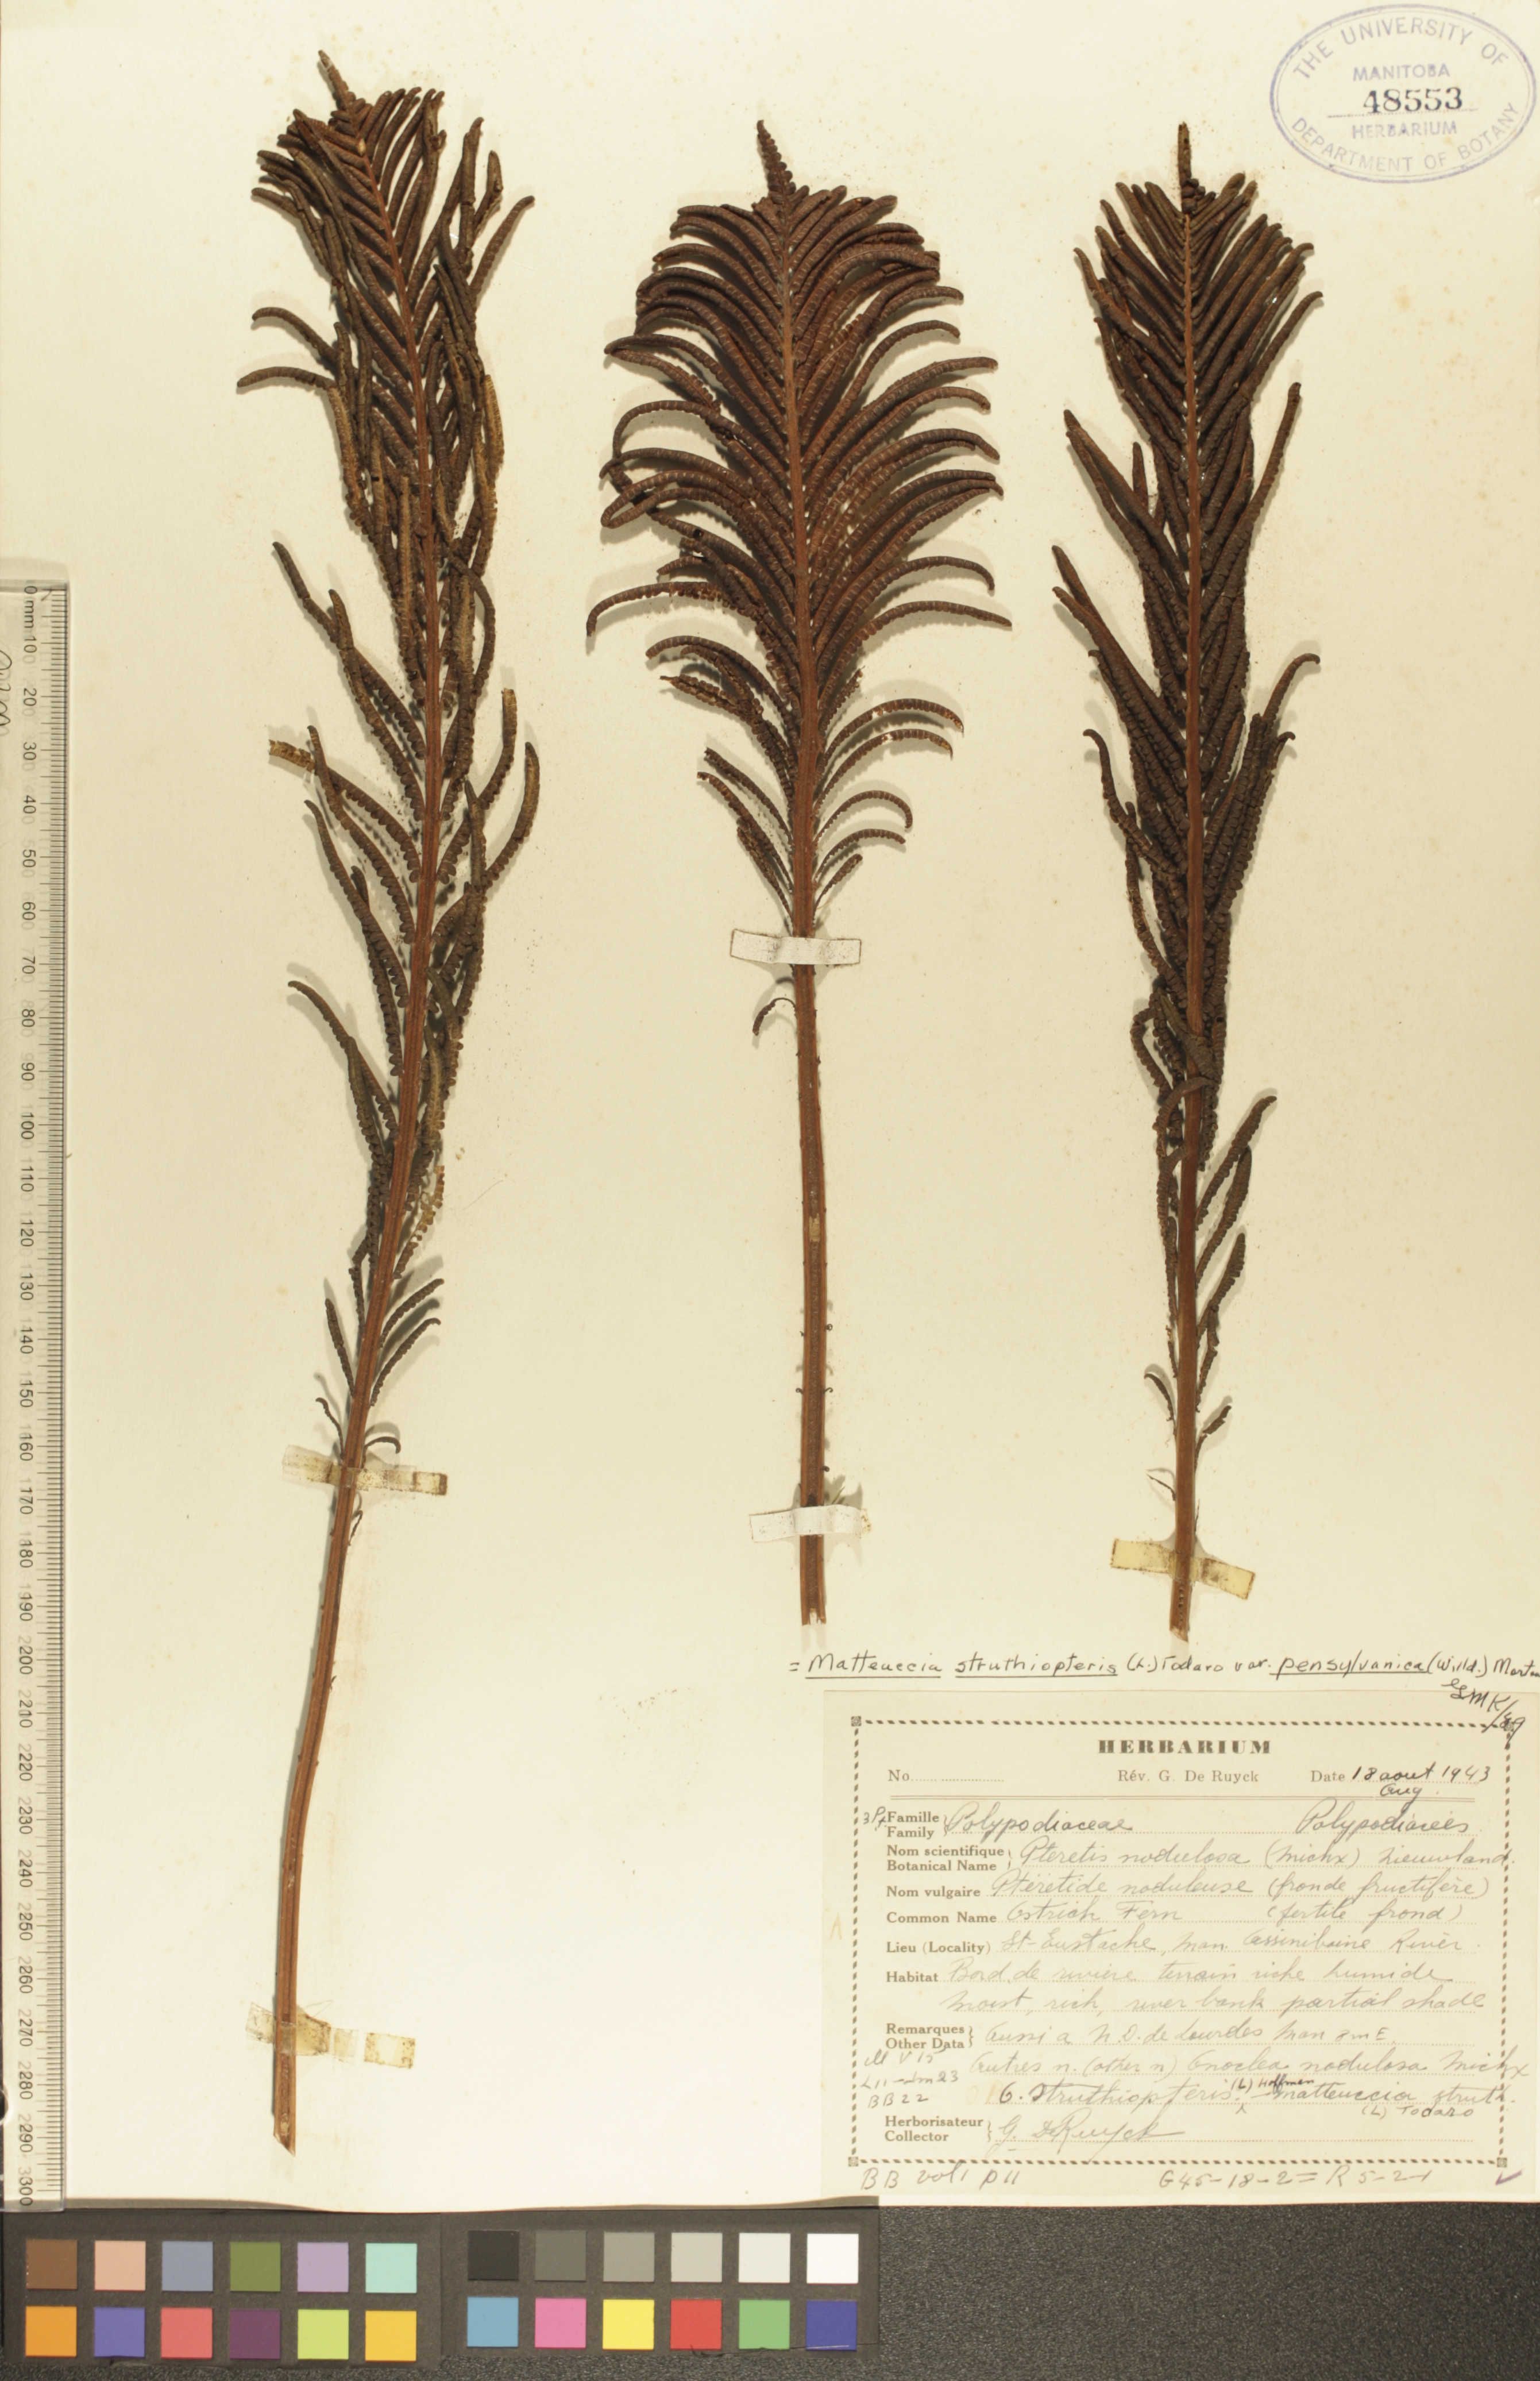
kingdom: Plantae
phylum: Tracheophyta
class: Polypodiopsida
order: Polypodiales
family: Onocleaceae
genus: Matteuccia
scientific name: Matteuccia pensylvanica
